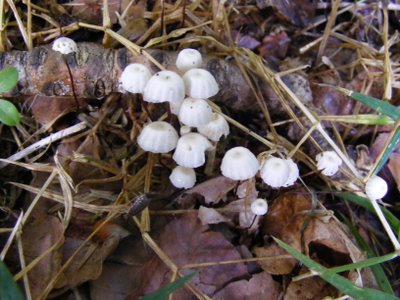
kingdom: Fungi
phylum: Basidiomycota
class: Agaricomycetes
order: Agaricales
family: Marasmiaceae
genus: Marasmius
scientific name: Marasmius rotula
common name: hjul-bruskhat
